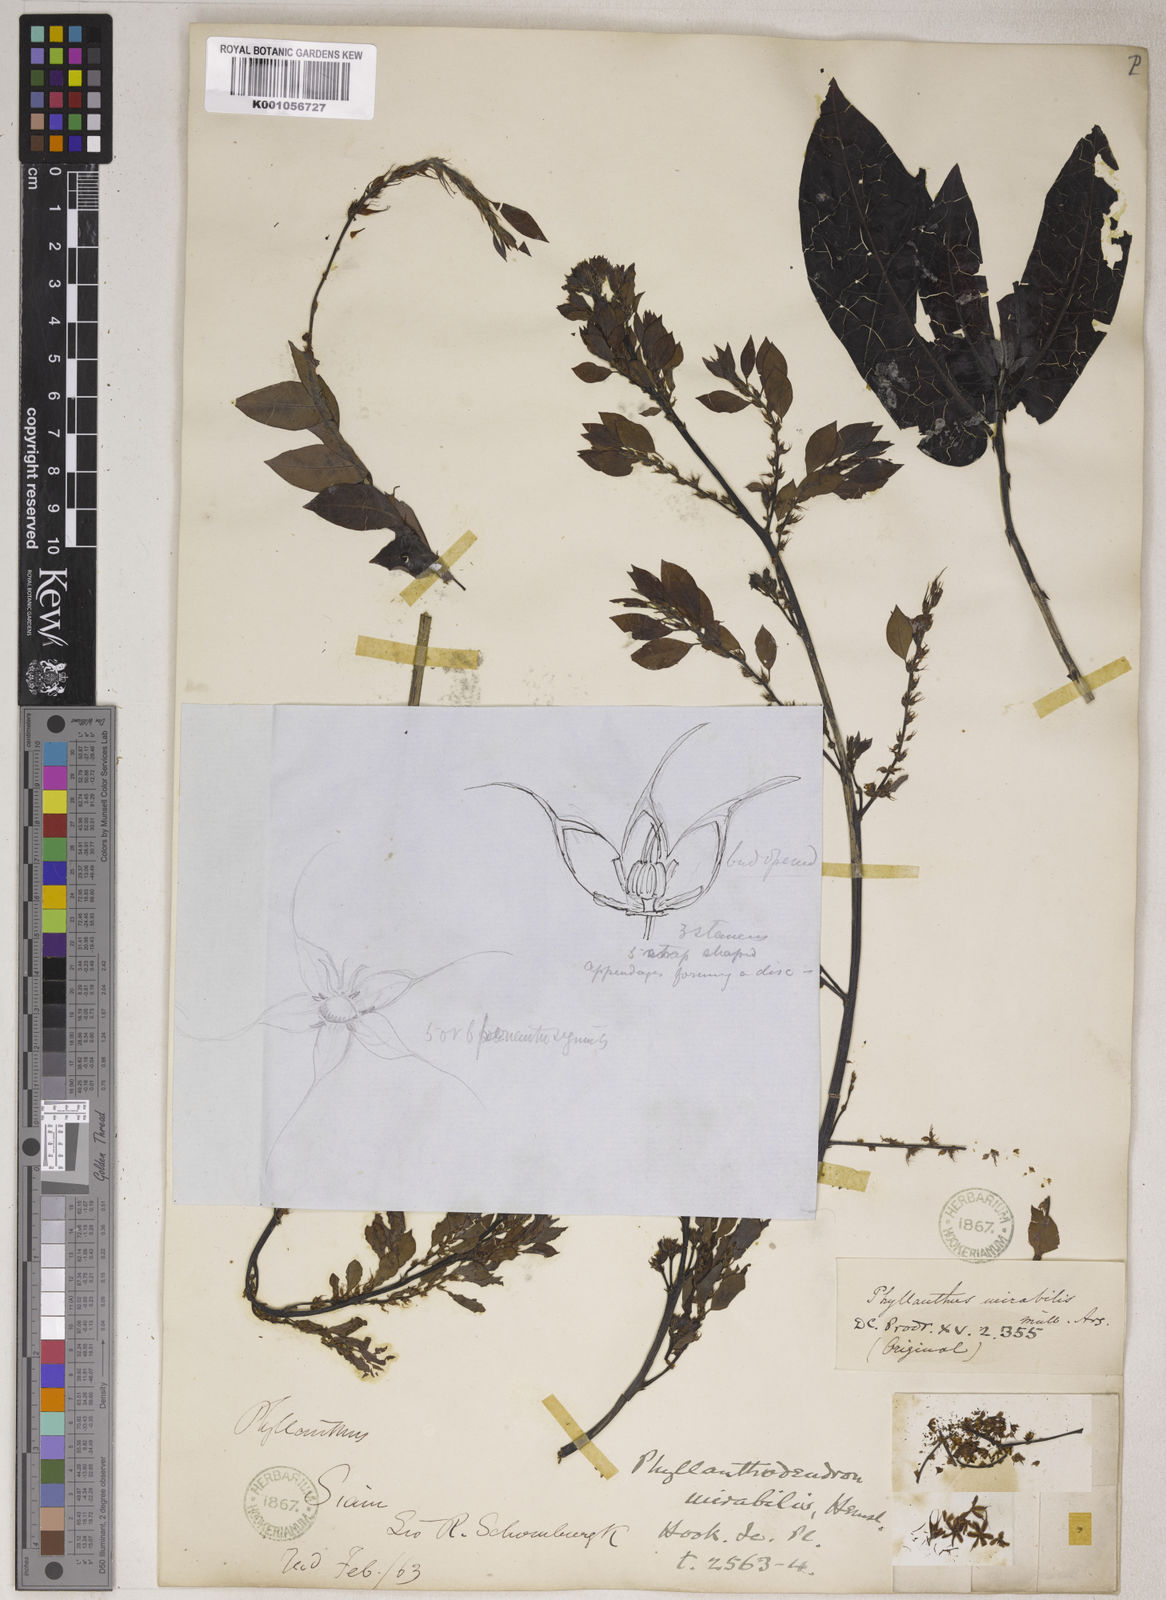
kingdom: Plantae
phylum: Tracheophyta
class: Magnoliopsida
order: Malpighiales
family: Phyllanthaceae
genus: Phyllanthus
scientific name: Phyllanthus
